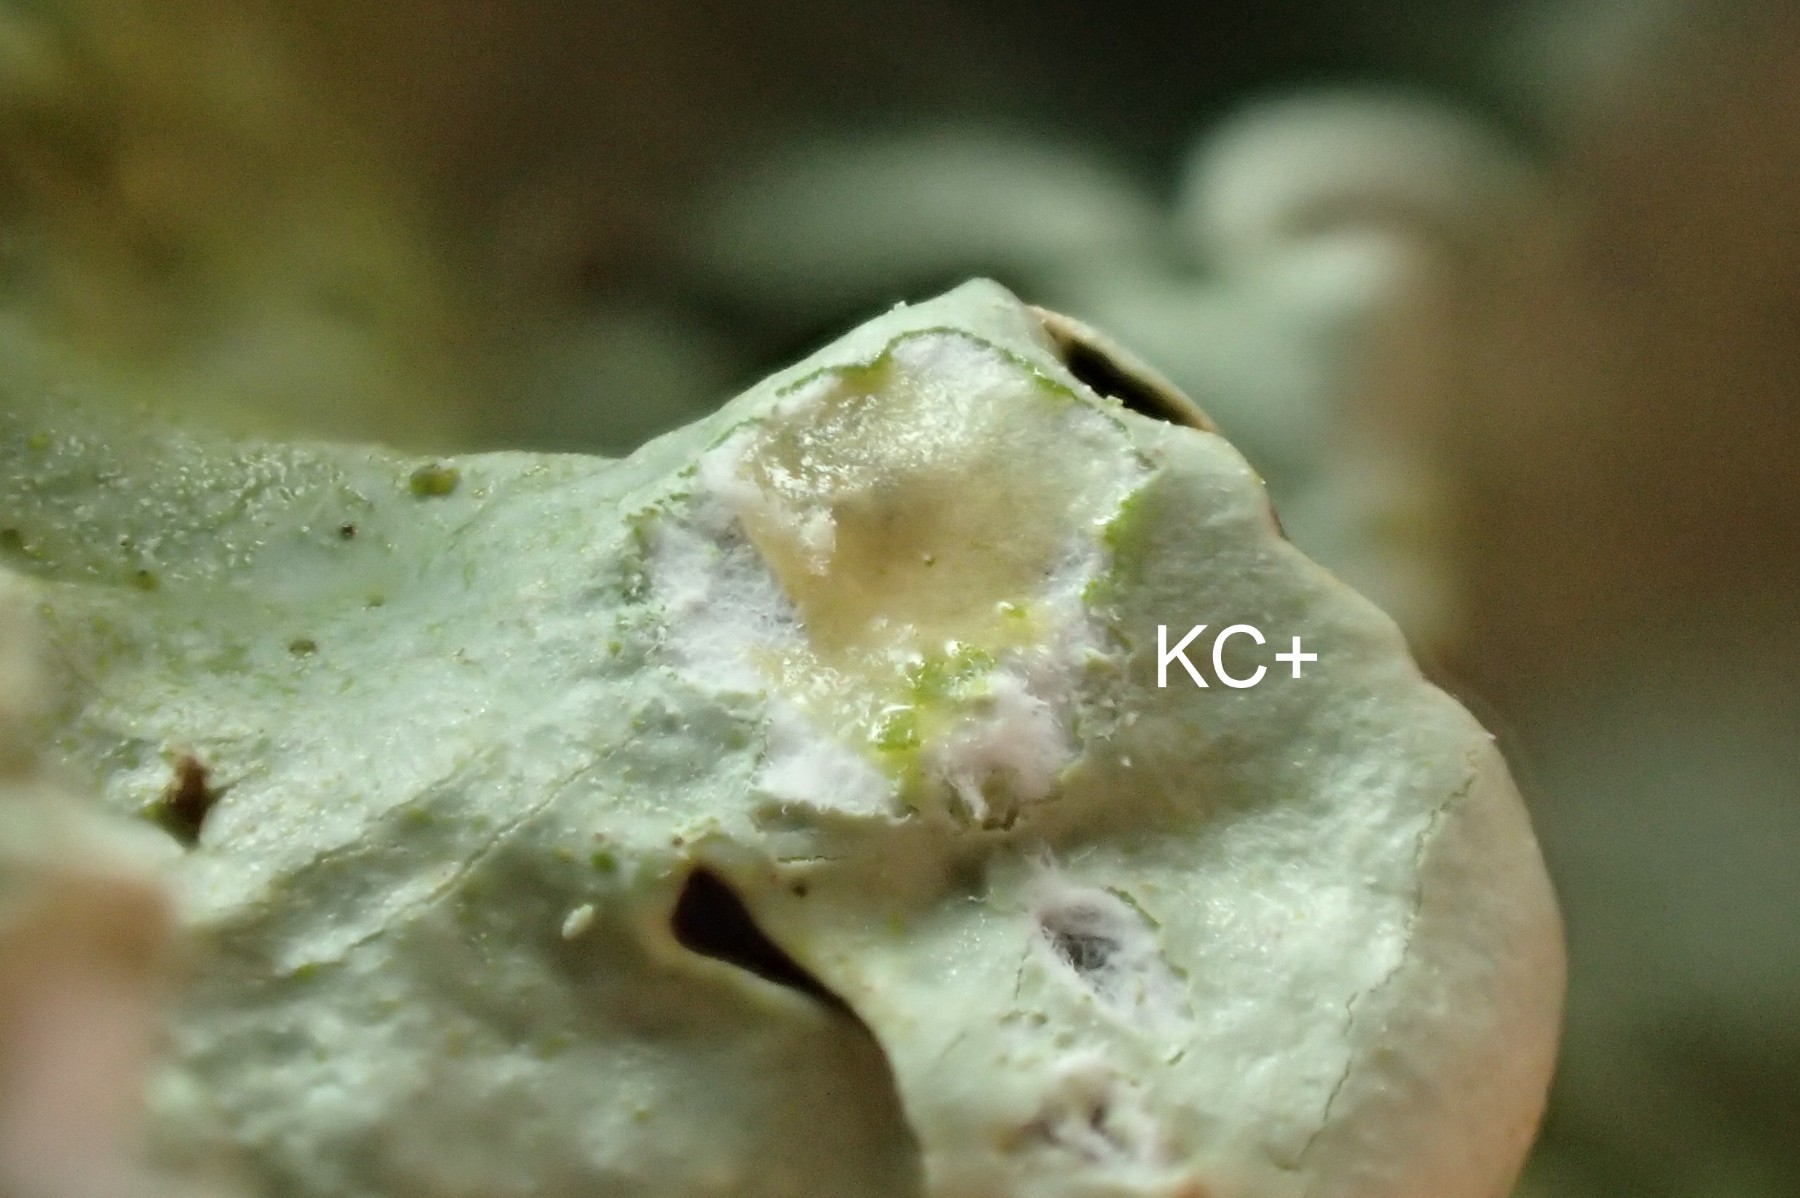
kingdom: Fungi
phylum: Ascomycota
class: Lecanoromycetes
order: Lecanorales
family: Parmeliaceae
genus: Flavoparmelia
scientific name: Flavoparmelia caperata
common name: gulgrøn skållav
